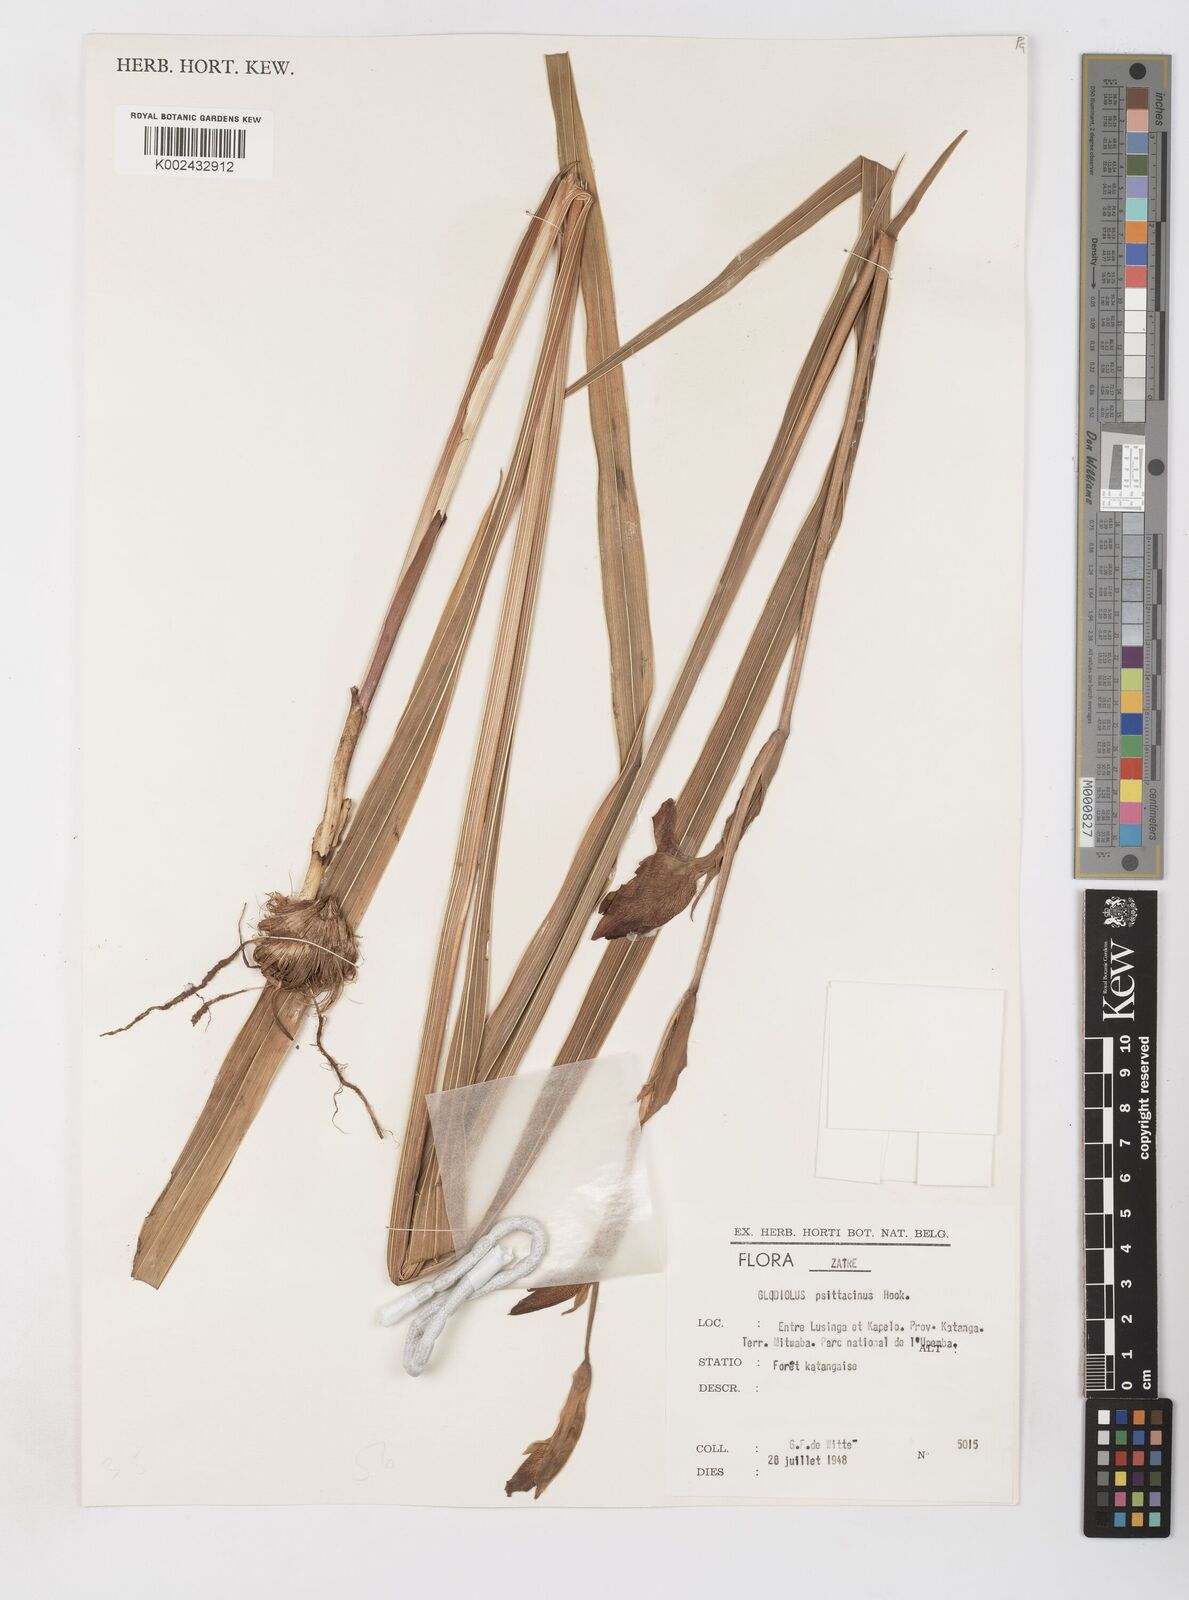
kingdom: Plantae
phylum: Tracheophyta
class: Liliopsida
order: Asparagales
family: Iridaceae
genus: Gladiolus
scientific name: Gladiolus dalenii
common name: Cornflag
